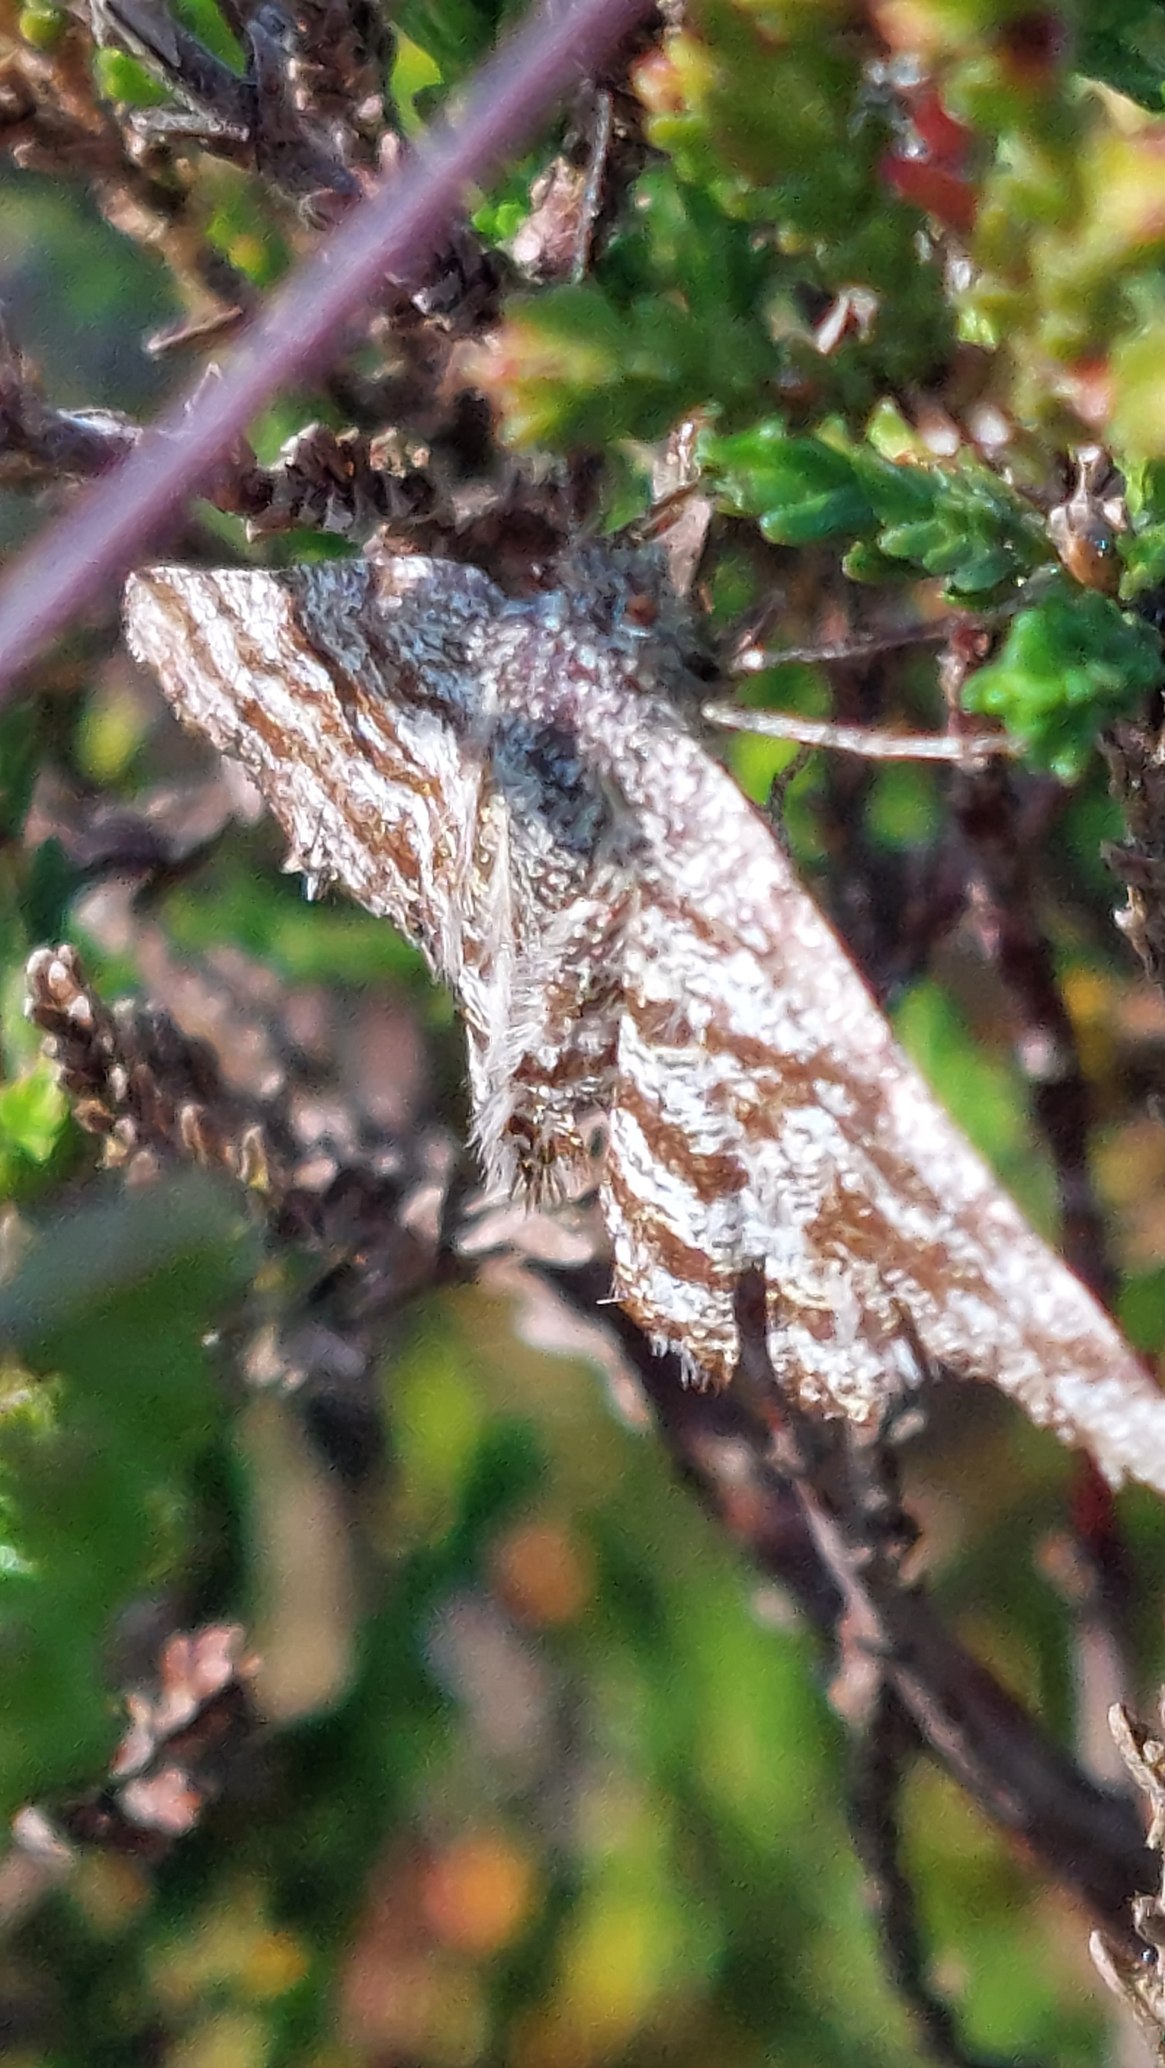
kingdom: Animalia
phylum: Arthropoda
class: Insecta
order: Lepidoptera
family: Geometridae
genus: Ematurga
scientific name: Ematurga atomaria
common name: Lyngmåler
